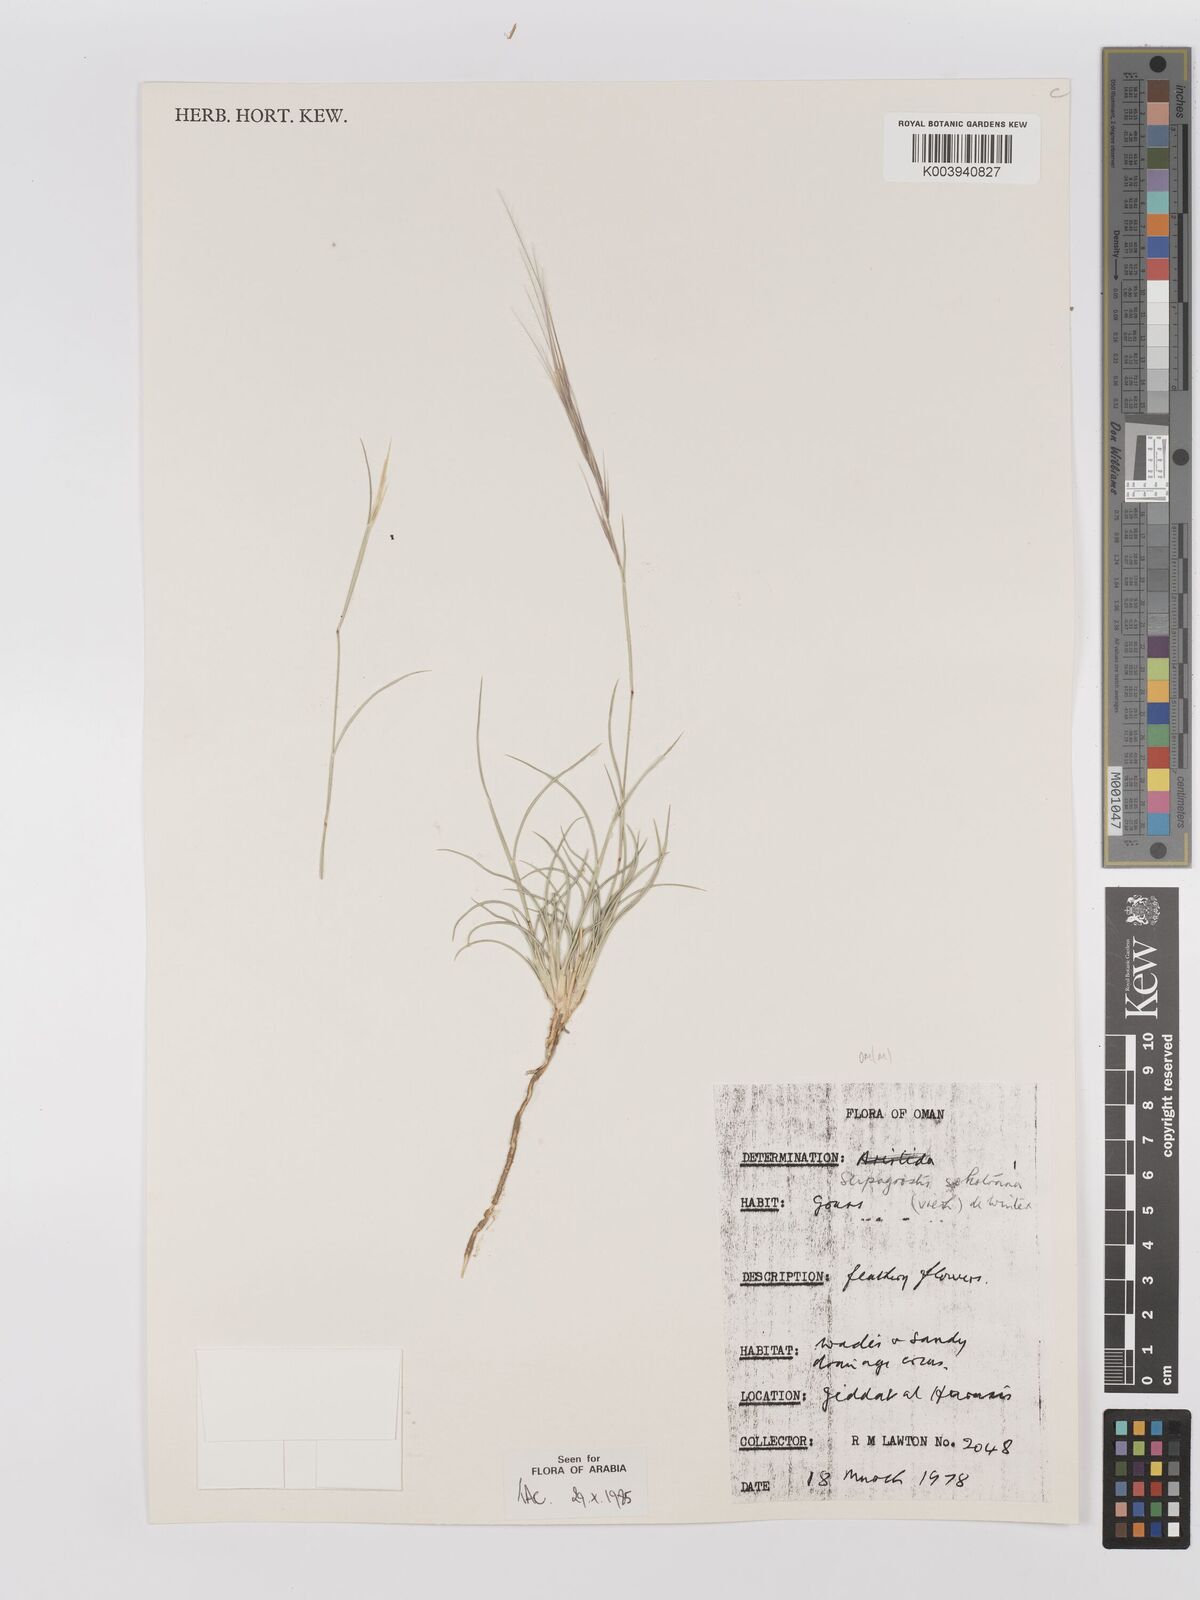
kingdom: Plantae
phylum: Tracheophyta
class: Liliopsida
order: Poales
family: Poaceae
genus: Stipagrostis
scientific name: Stipagrostis sokotrana
